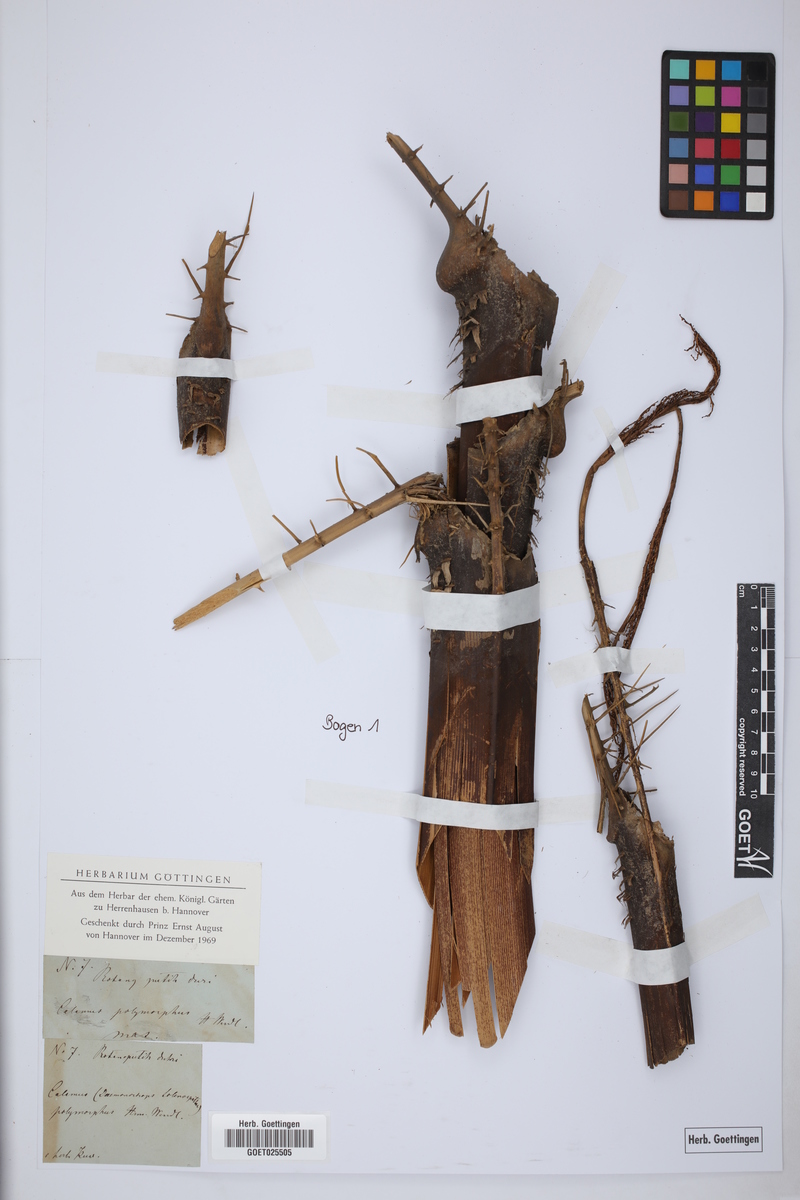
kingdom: Plantae
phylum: Tracheophyta
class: Liliopsida
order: Arecales
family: Arecaceae
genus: Daemonorops
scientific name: Daemonorops
